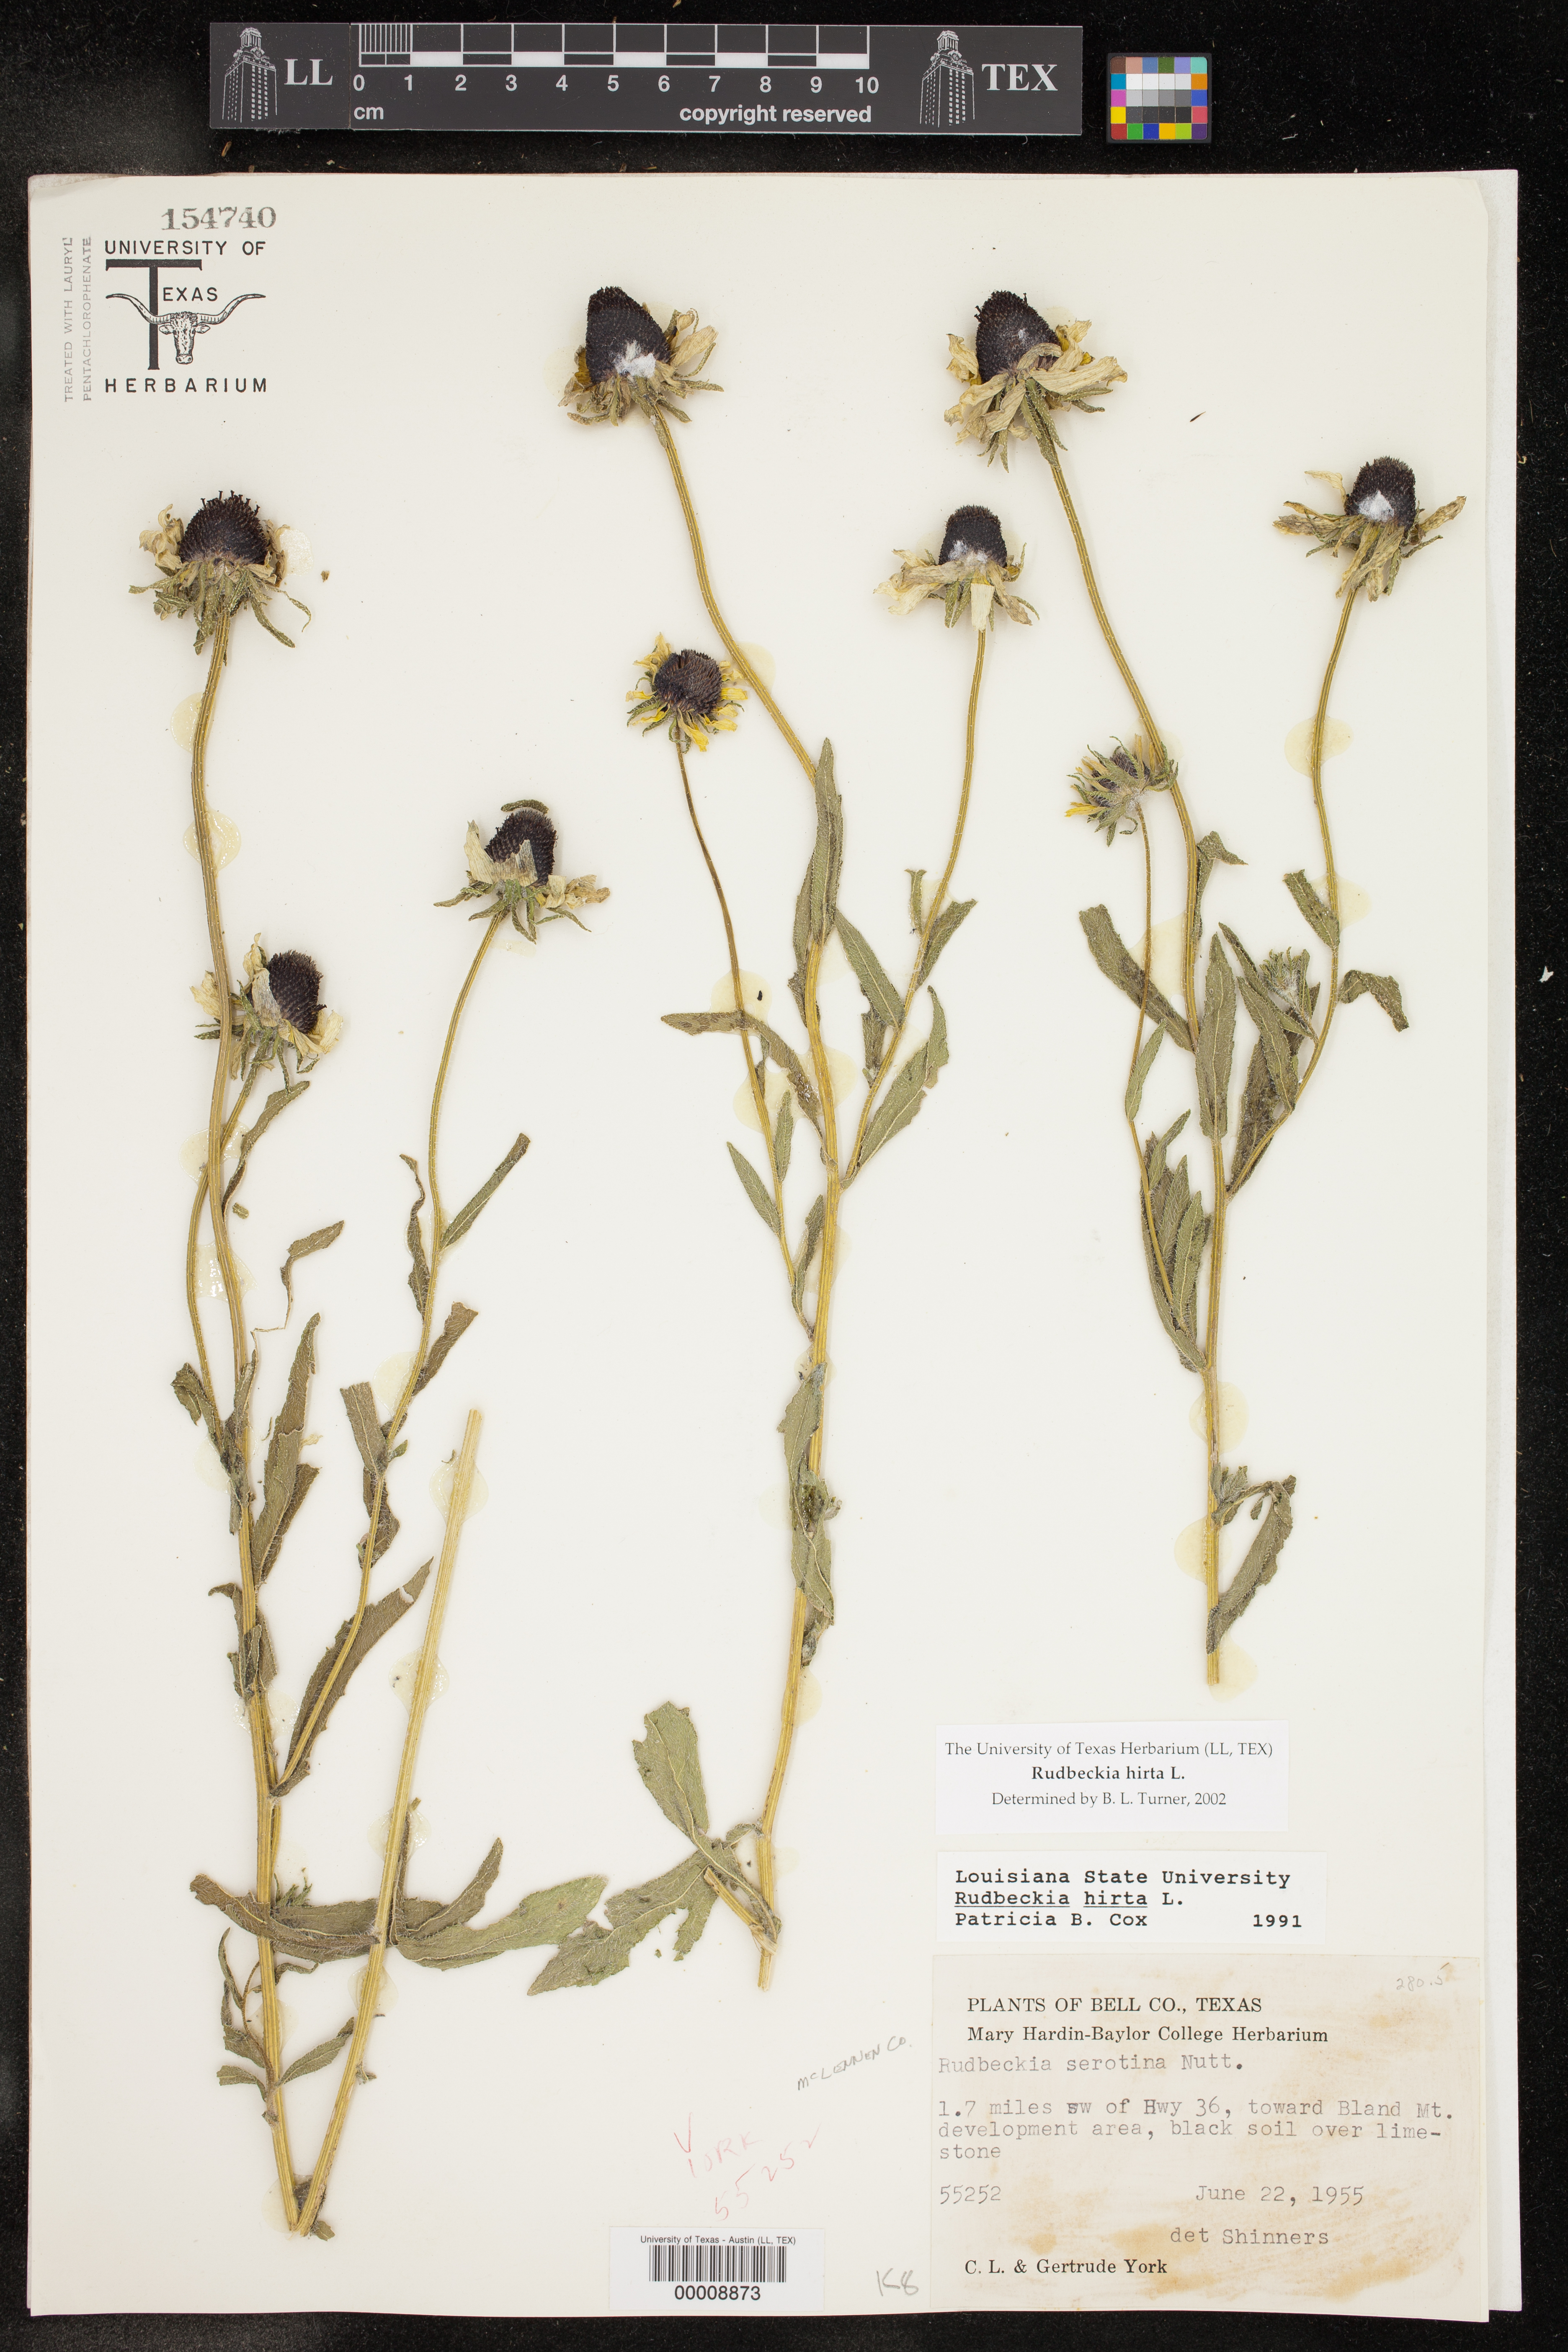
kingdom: Plantae
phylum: Tracheophyta
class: Magnoliopsida
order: Asterales
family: Asteraceae
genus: Rudbeckia
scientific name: Rudbeckia hirta
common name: Black-eyed-susan
